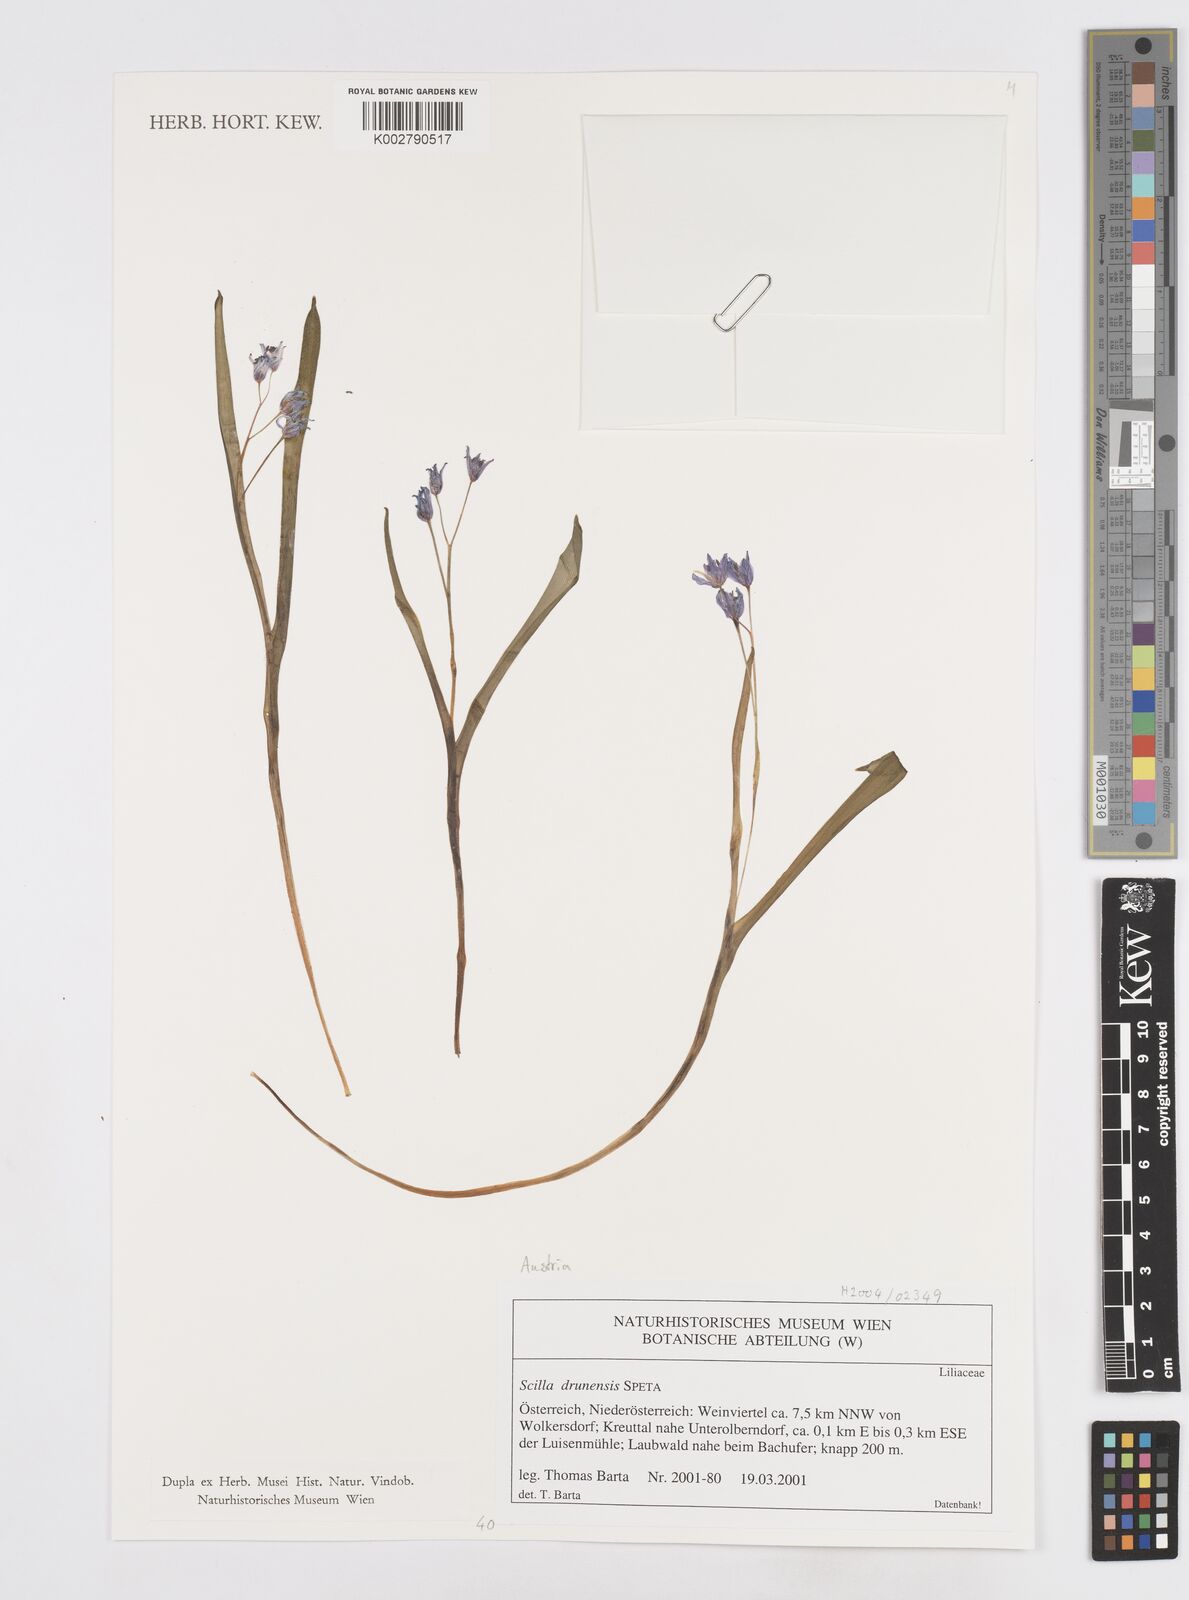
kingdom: Plantae
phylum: Tracheophyta
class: Liliopsida
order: Asparagales
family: Asparagaceae
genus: Scilla
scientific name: Scilla bifolia
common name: Alpine squill
